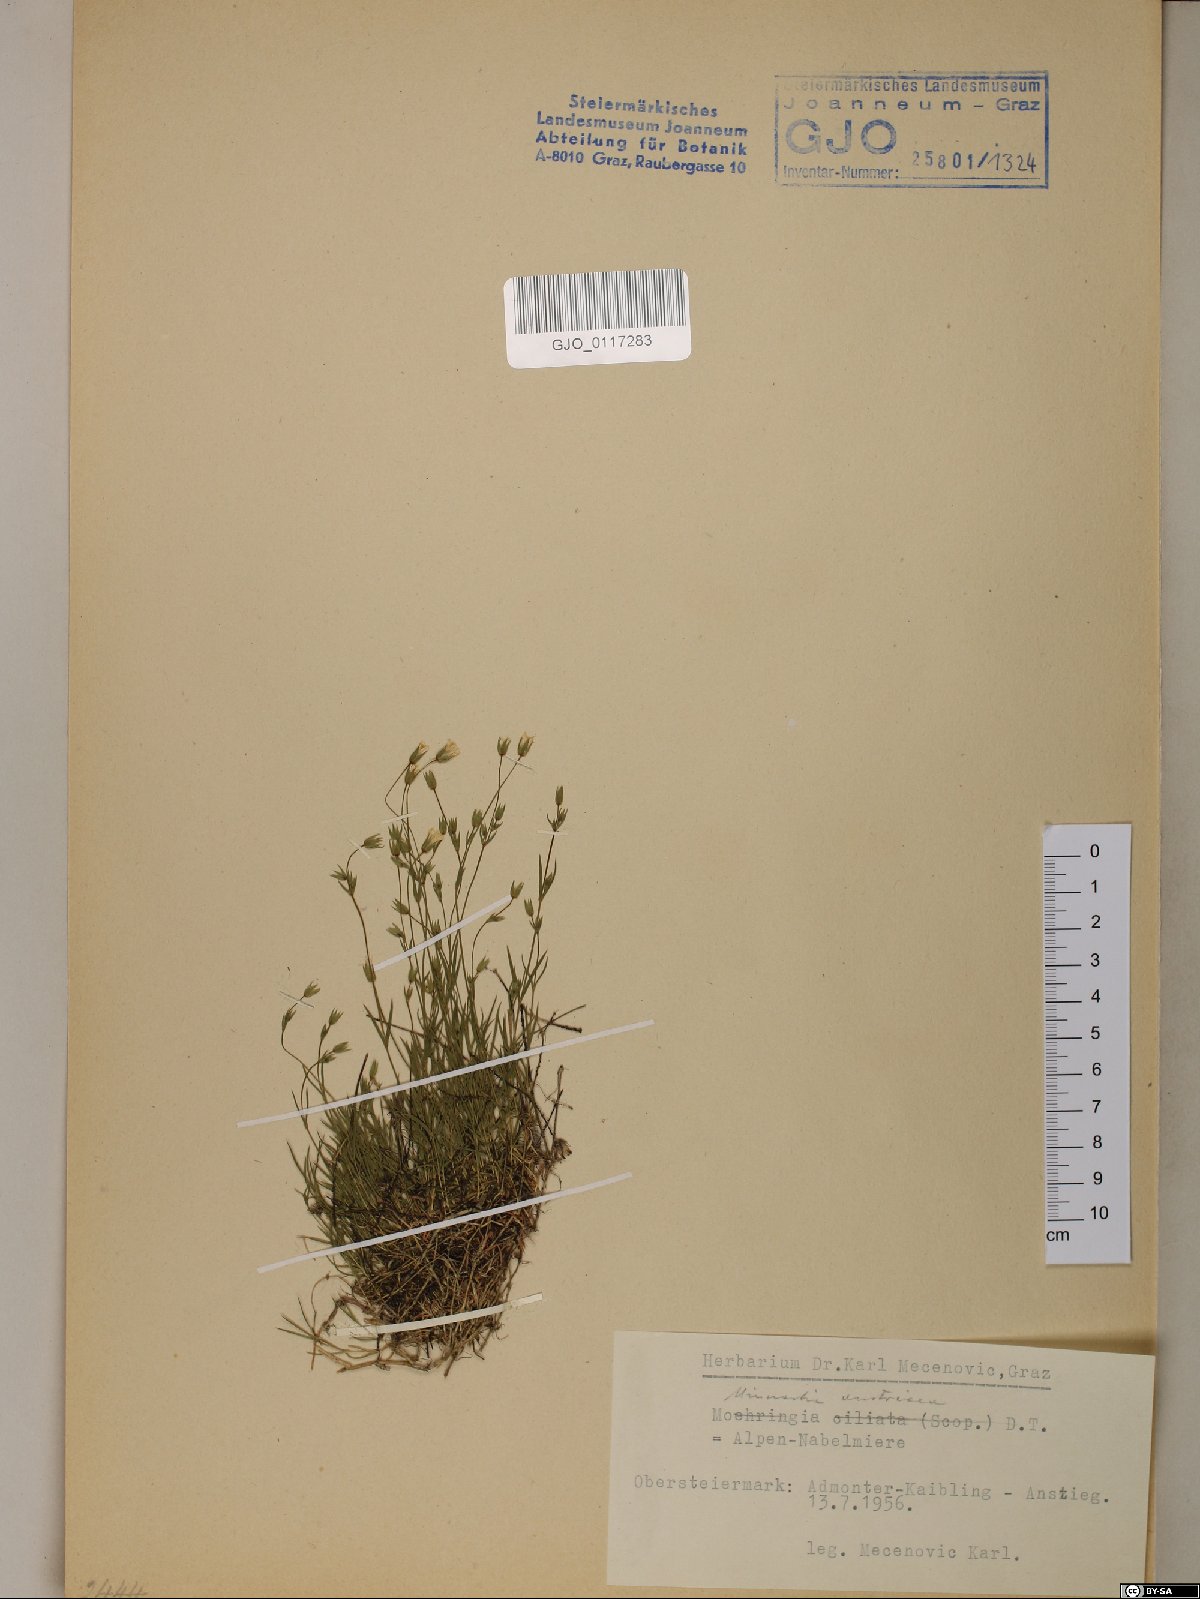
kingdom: Plantae
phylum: Tracheophyta
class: Magnoliopsida
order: Caryophyllales
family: Caryophyllaceae
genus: Sabulina
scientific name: Sabulina austriaca
